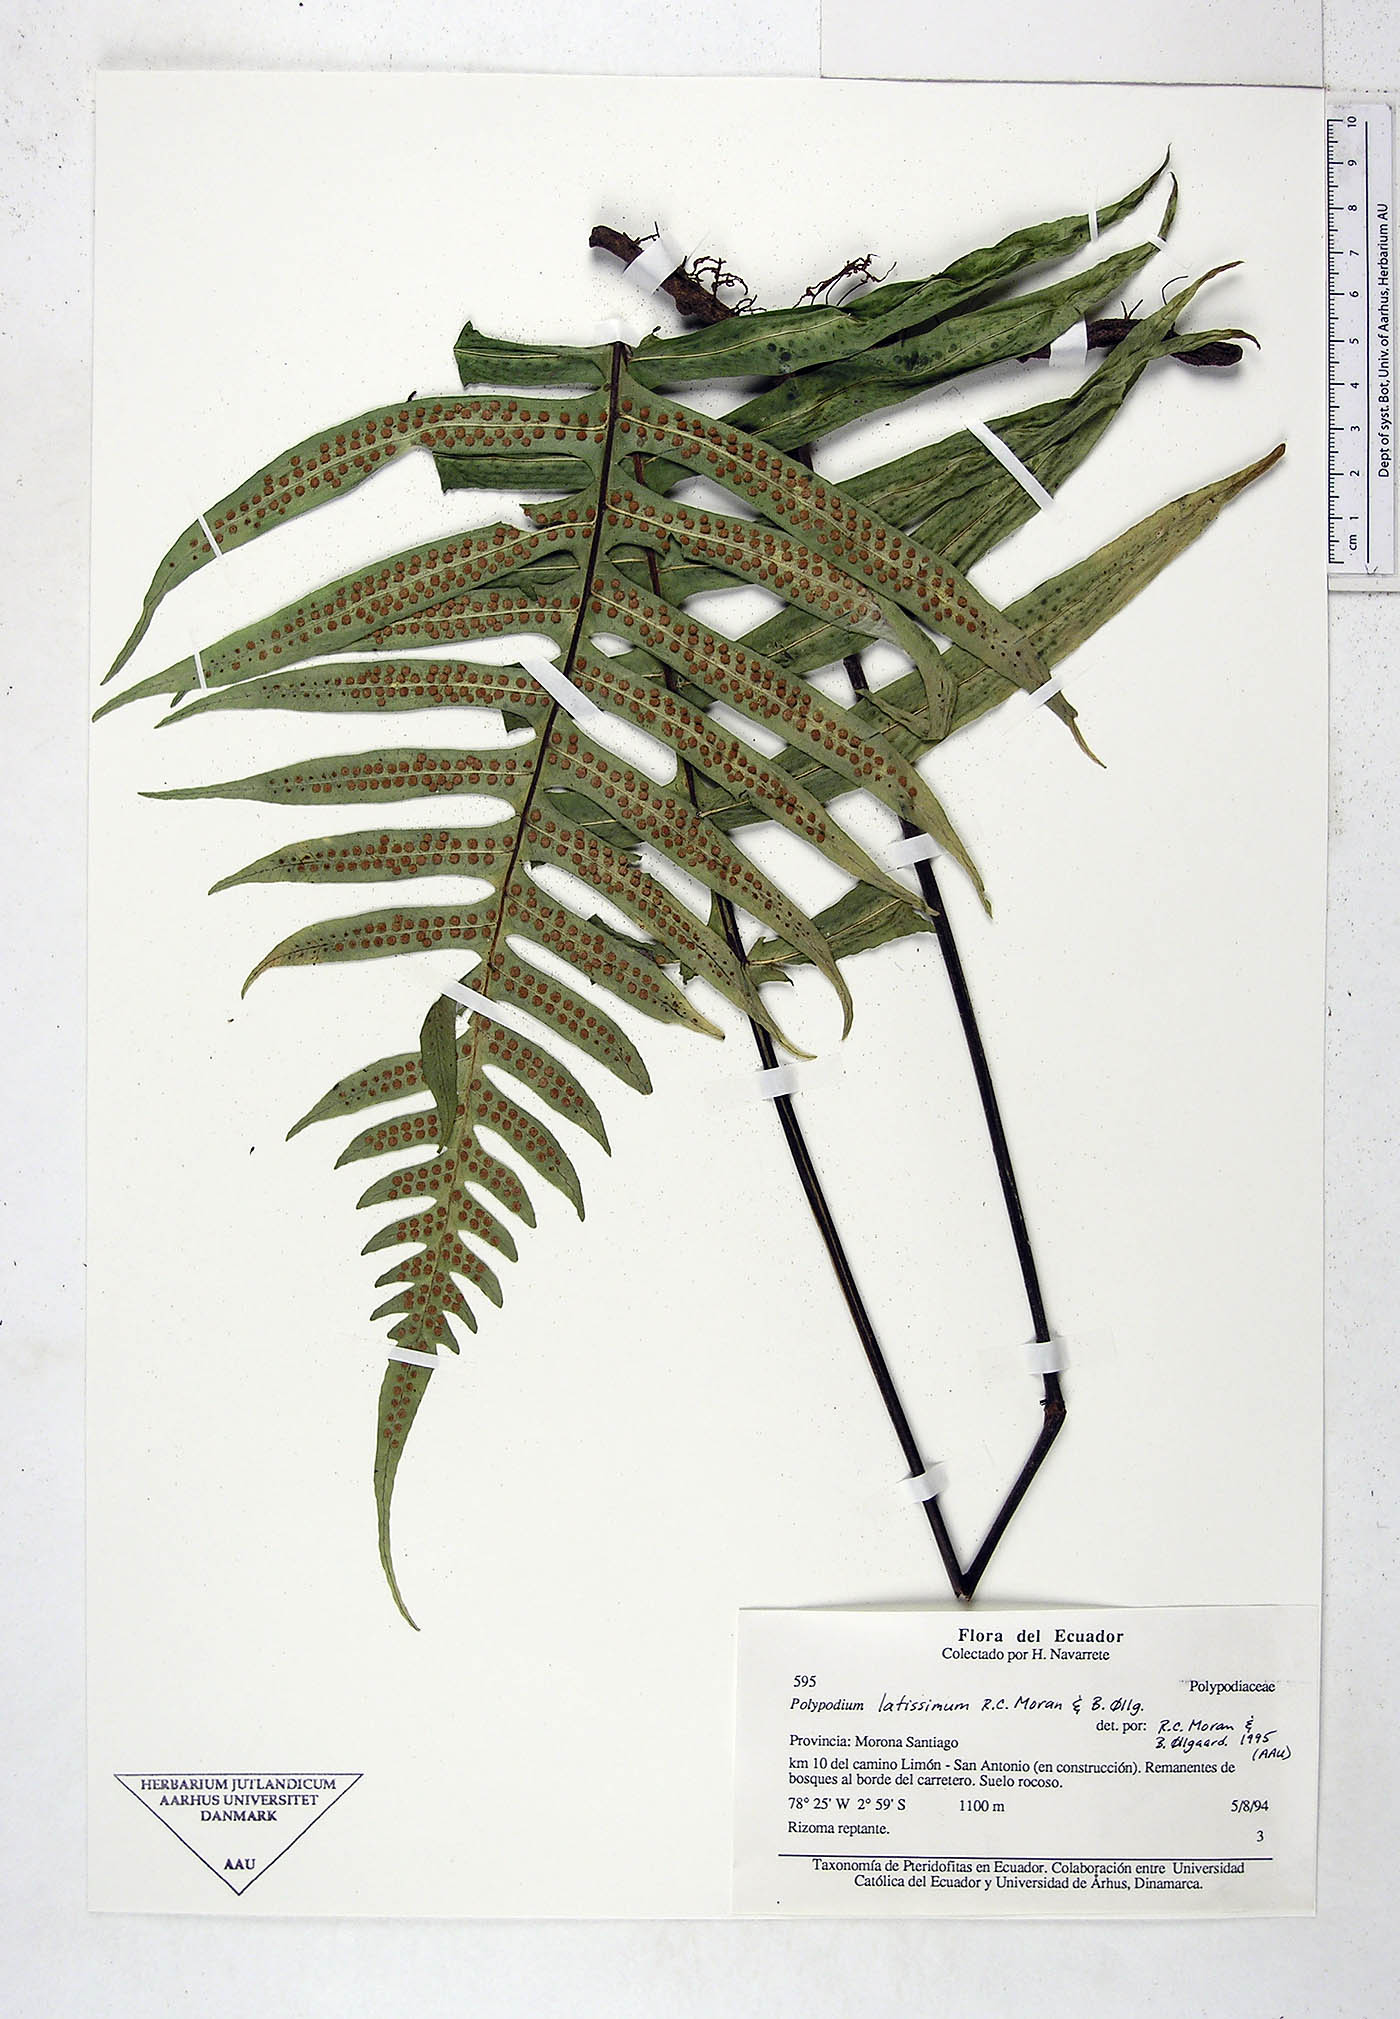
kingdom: Plantae
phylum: Tracheophyta
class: Polypodiopsida
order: Polypodiales
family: Polypodiaceae
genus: Serpocaulon
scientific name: Serpocaulon latissimum
